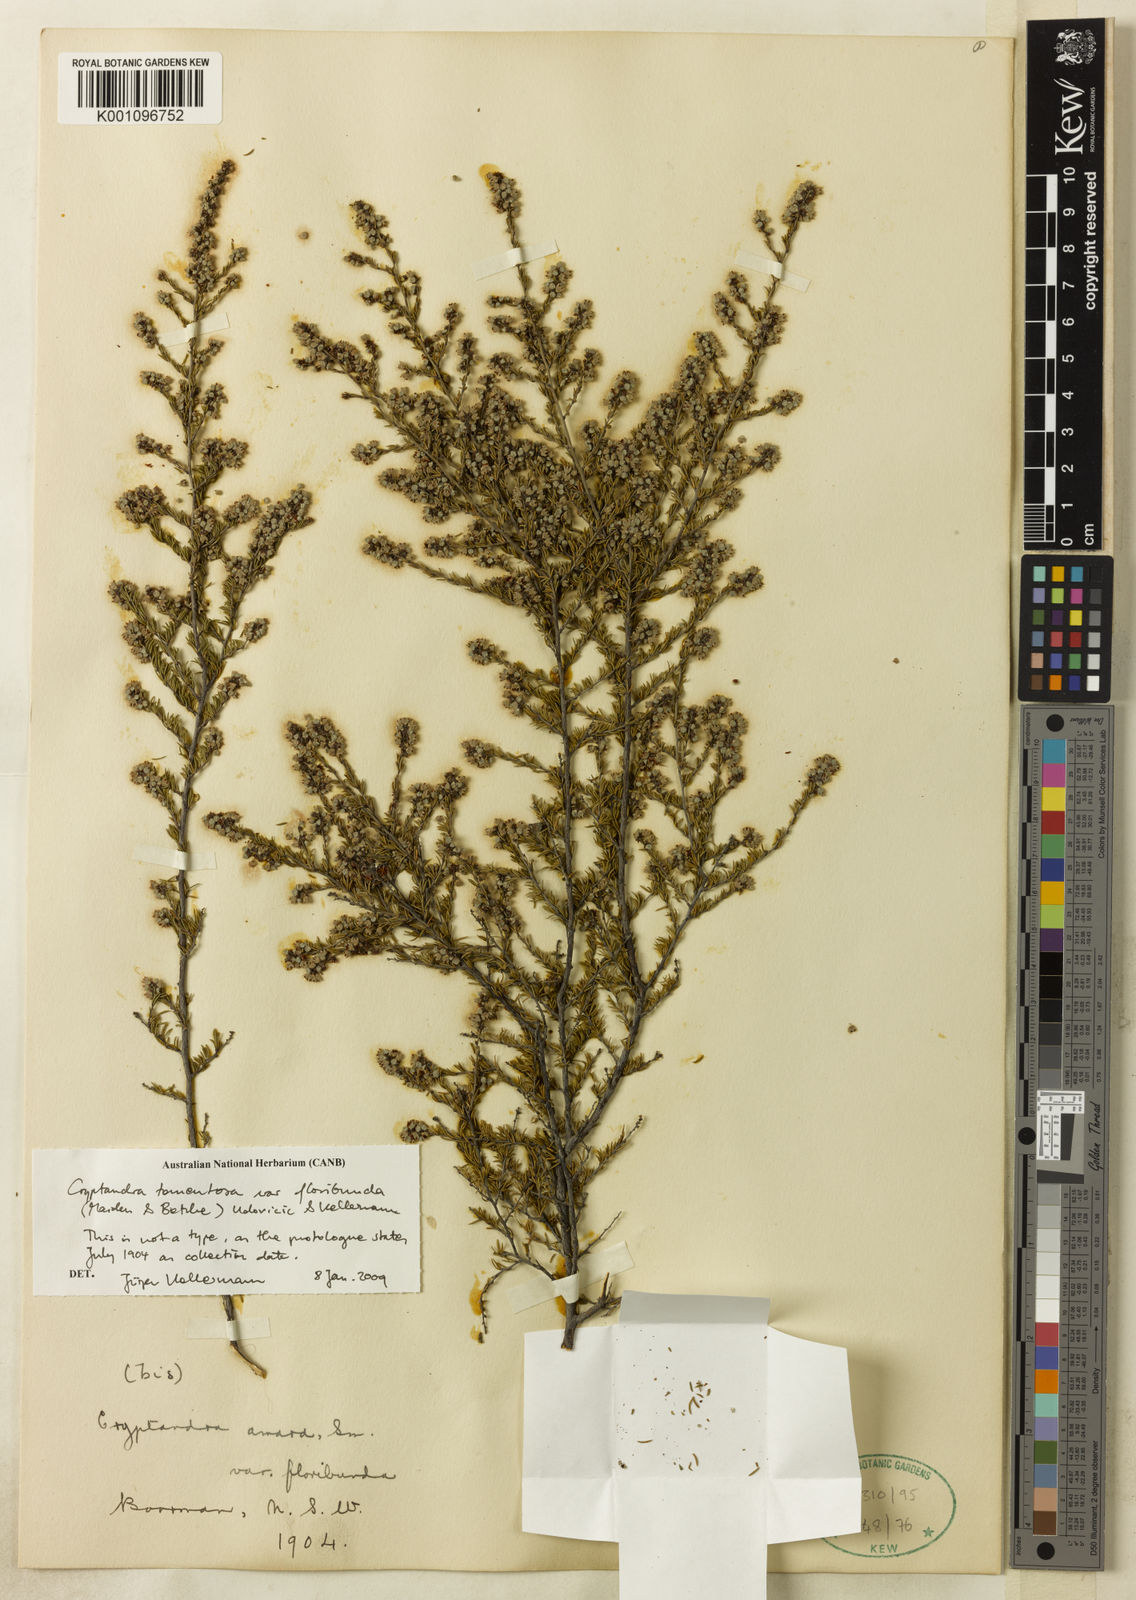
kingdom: Plantae
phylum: Tracheophyta
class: Magnoliopsida
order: Rosales
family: Rhamnaceae
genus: Cryptandra
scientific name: Cryptandra amara
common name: Bitter cryptandra
